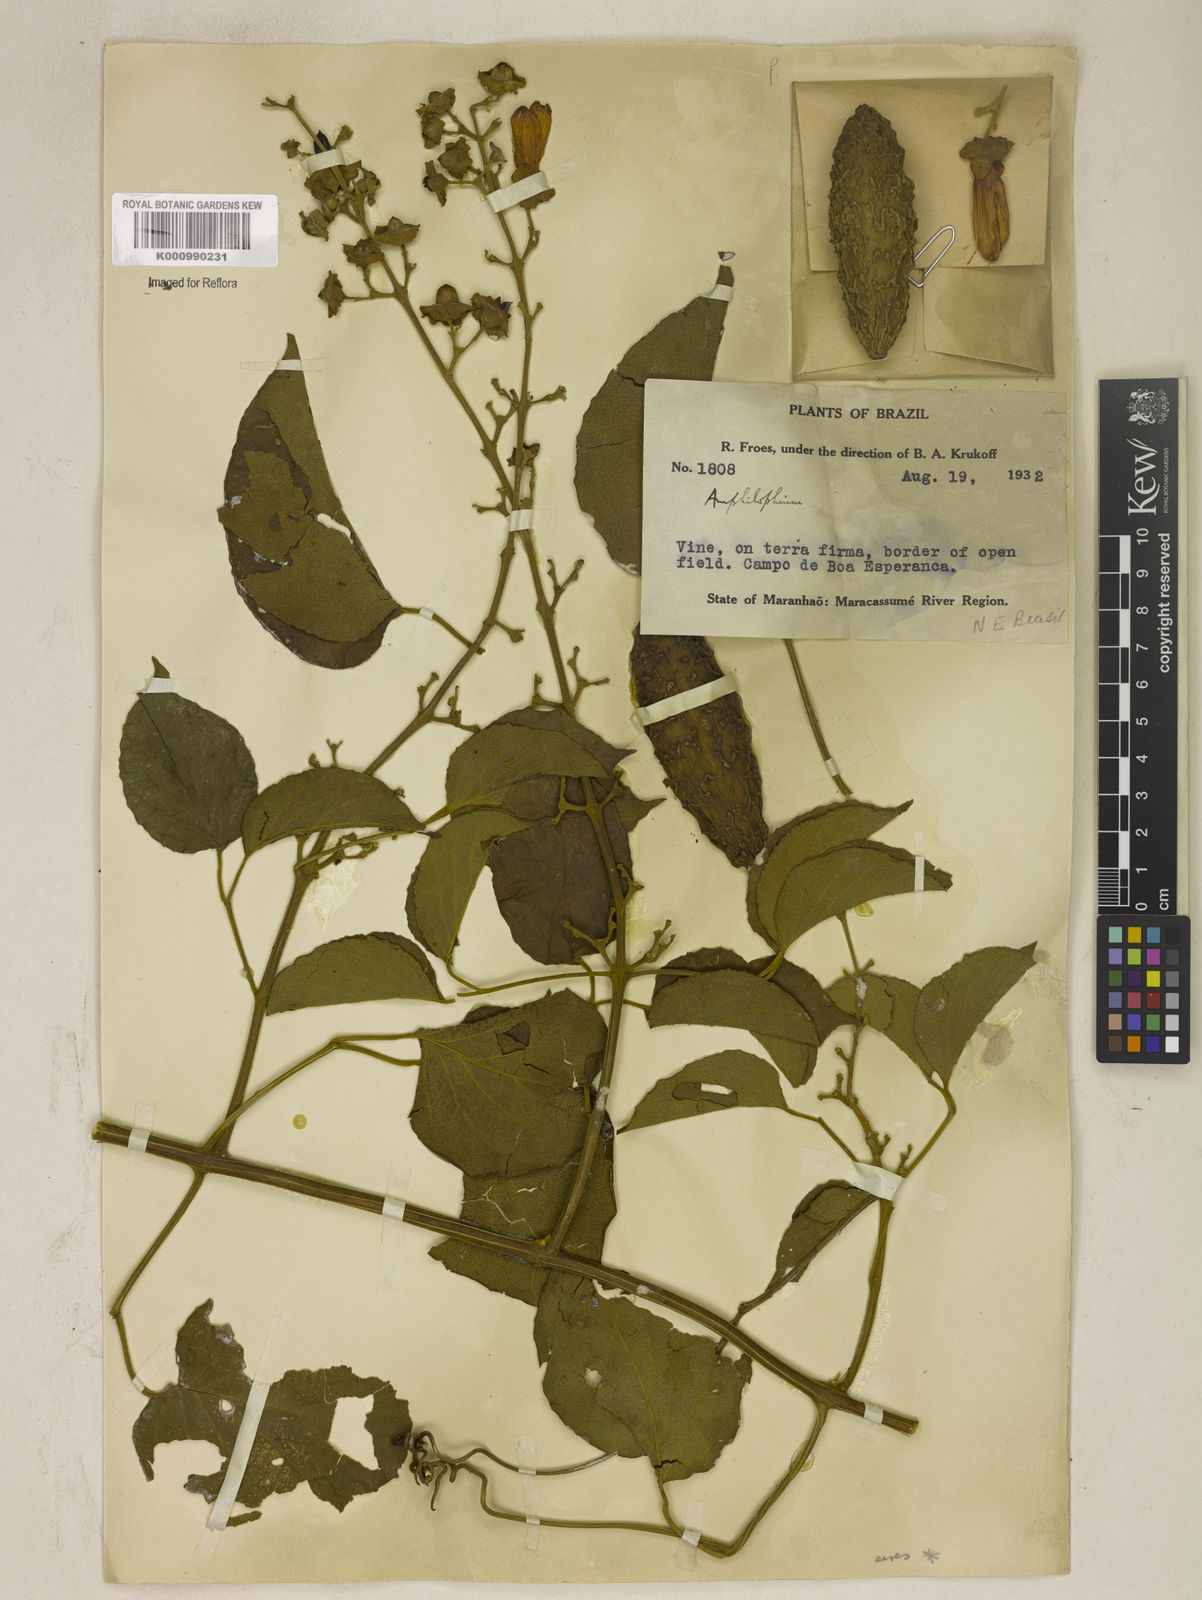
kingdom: Plantae
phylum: Tracheophyta
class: Magnoliopsida
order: Lamiales
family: Bignoniaceae
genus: Amphilophium
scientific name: Amphilophium paniculatum
